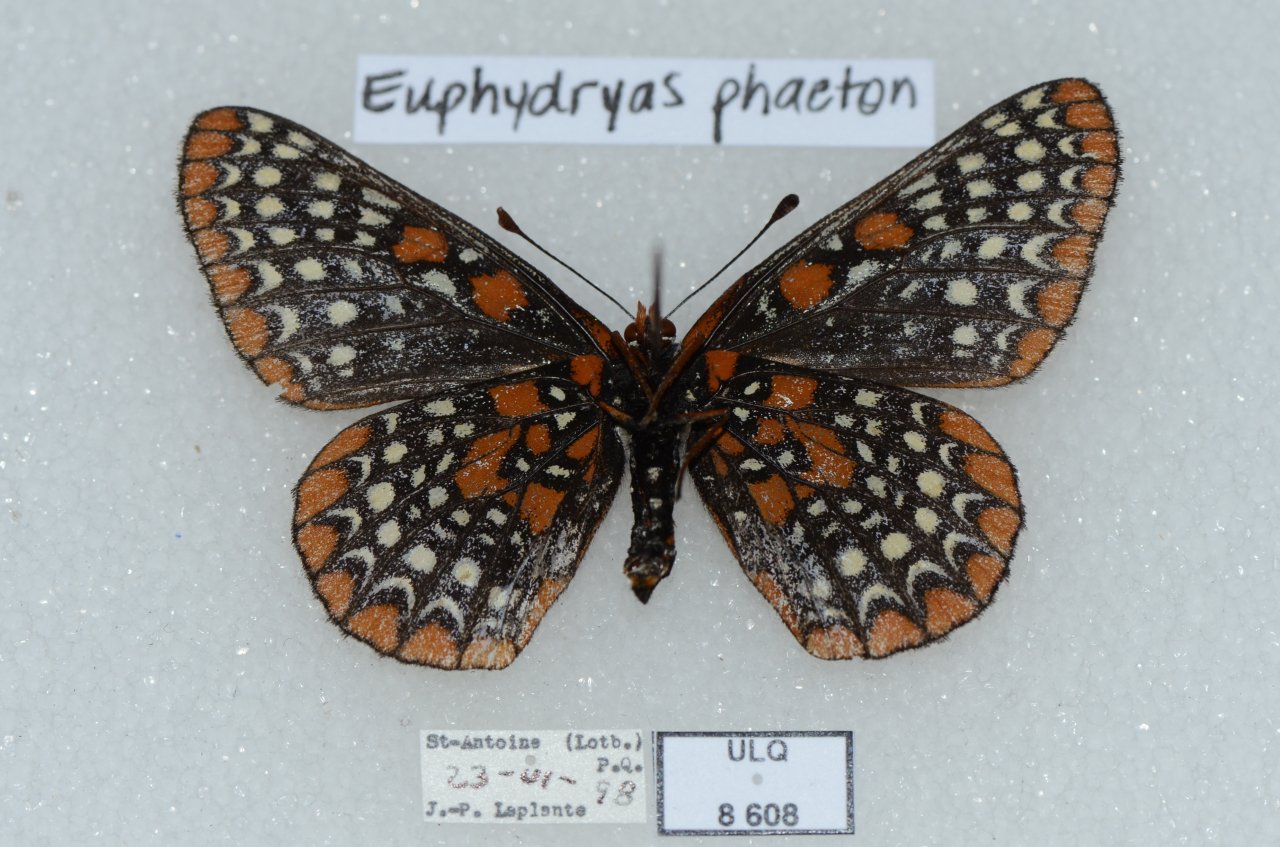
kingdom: Animalia
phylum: Arthropoda
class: Insecta
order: Lepidoptera
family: Nymphalidae
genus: Euphydryas
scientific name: Euphydryas phaeton
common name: Baltimore Checkerspot
